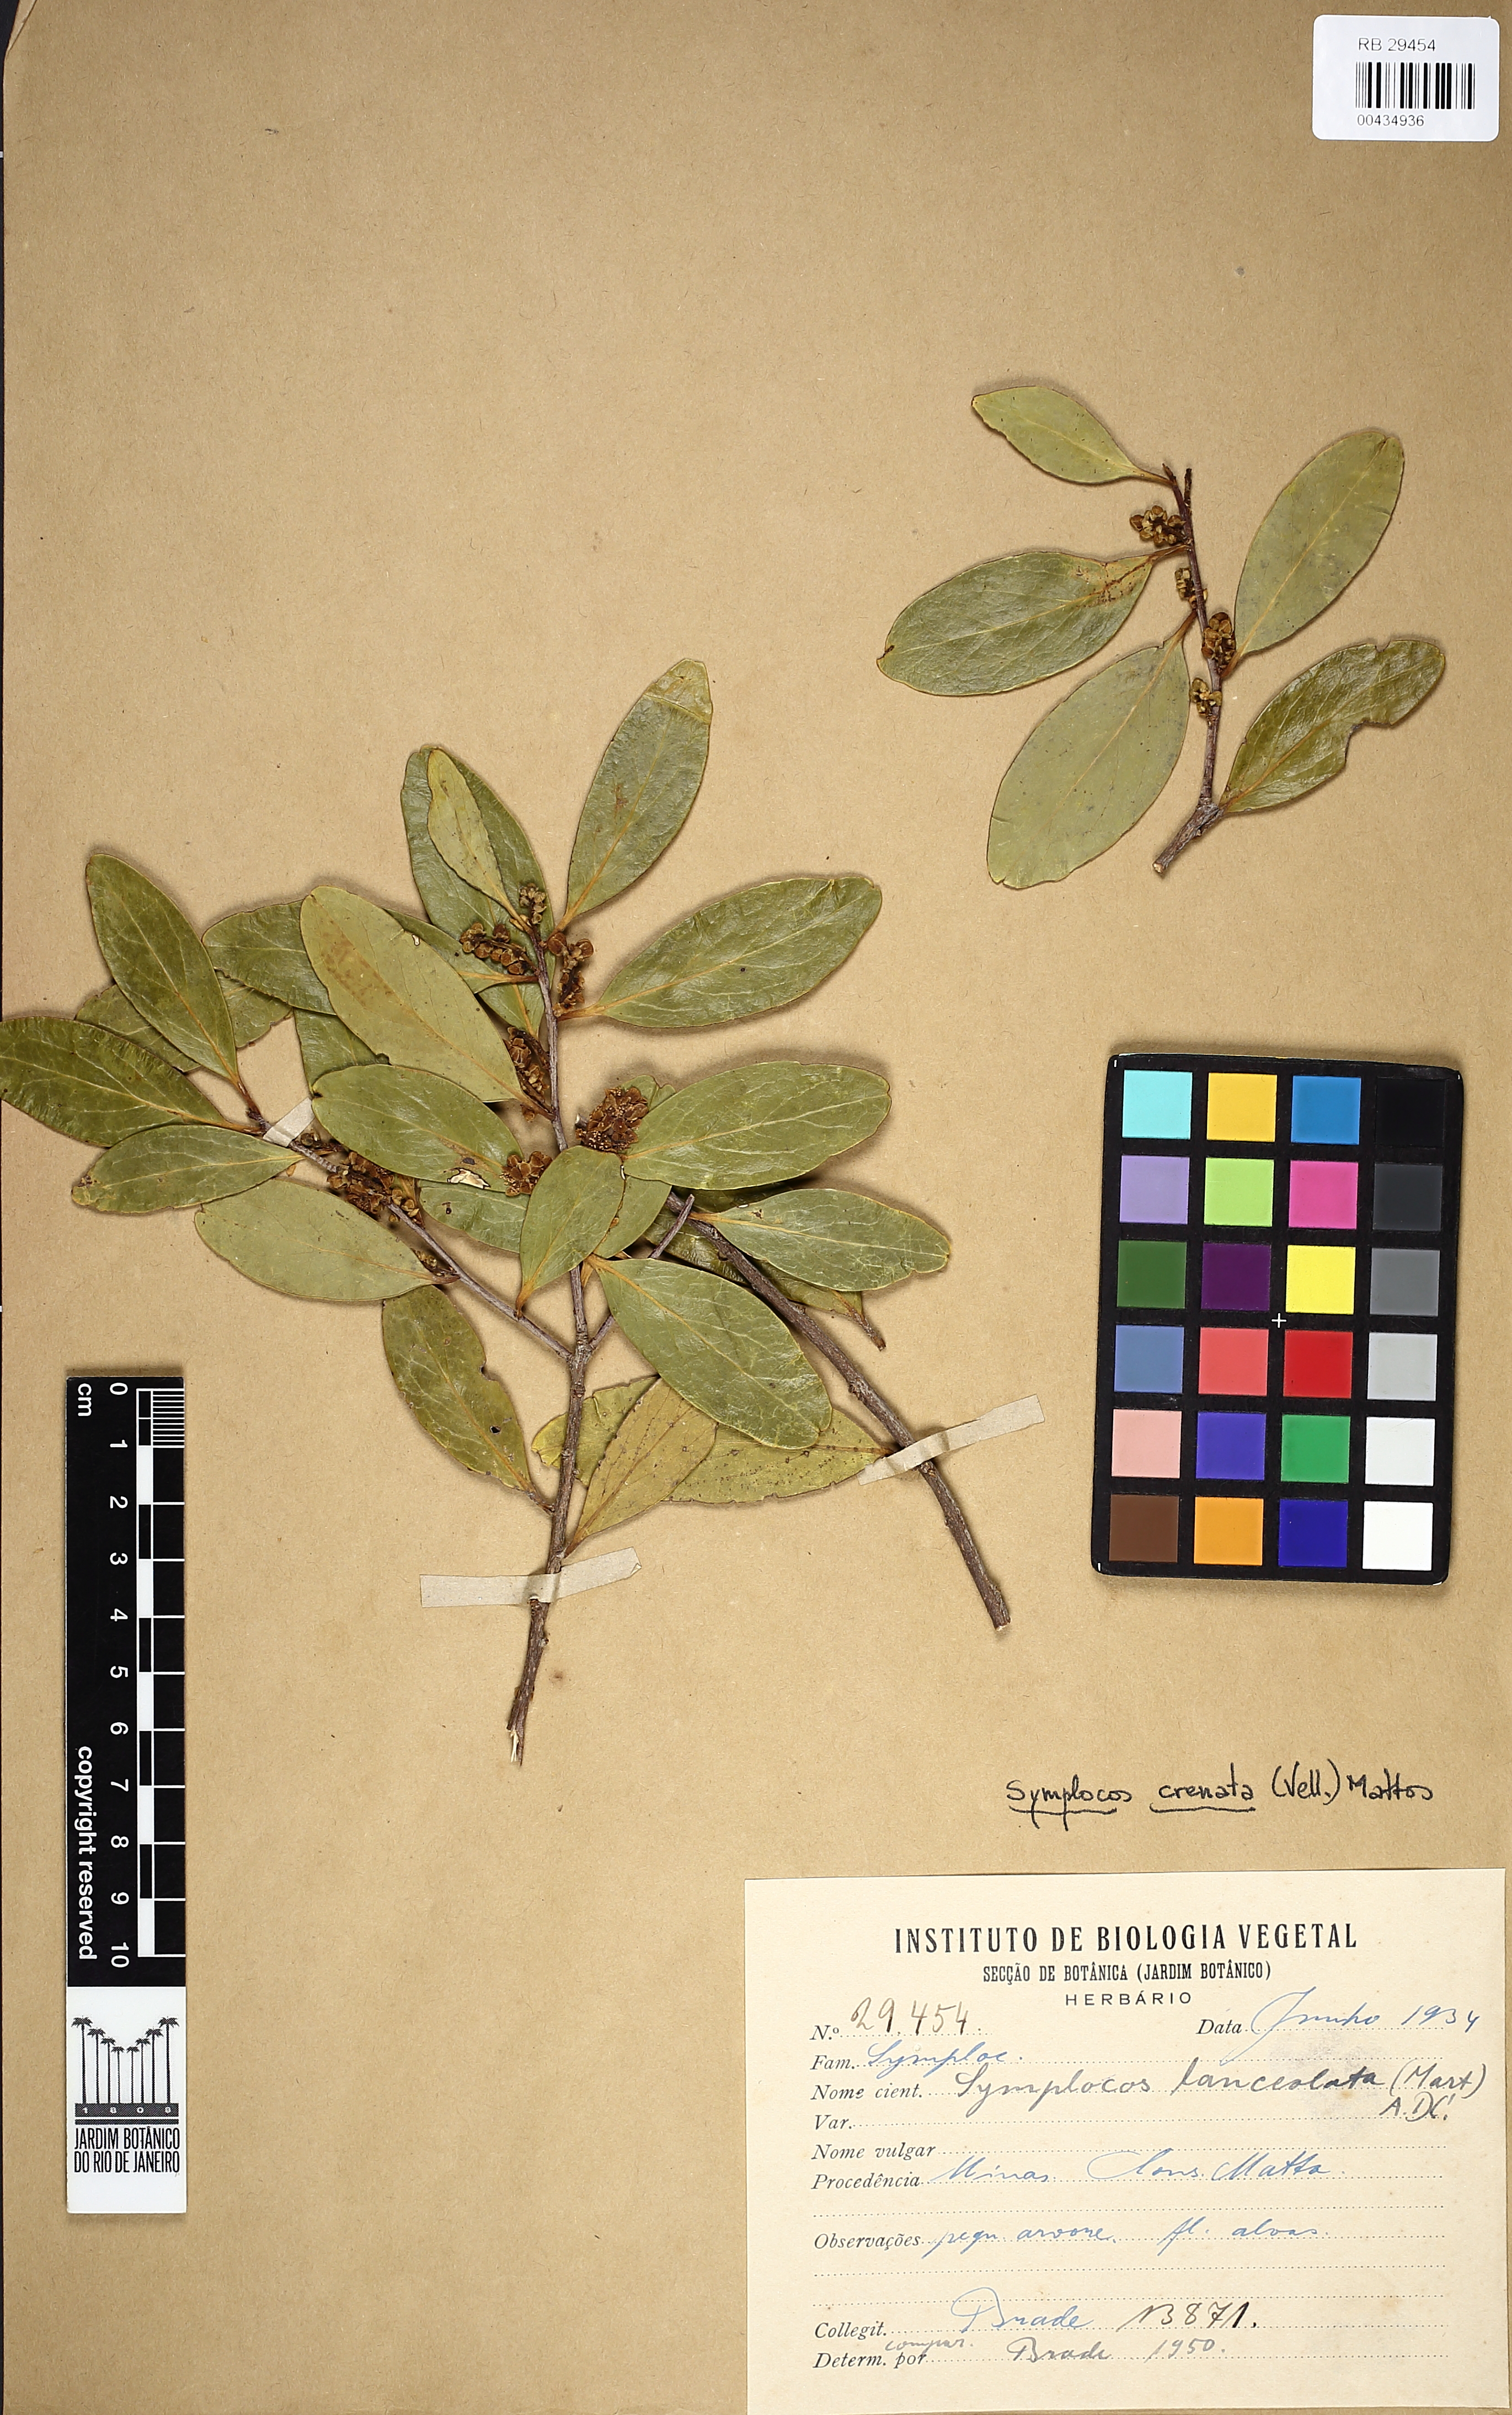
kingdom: Plantae
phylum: Tracheophyta
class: Magnoliopsida
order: Ericales
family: Symplocaceae
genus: Symplocos
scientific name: Symplocos oblongifolia
